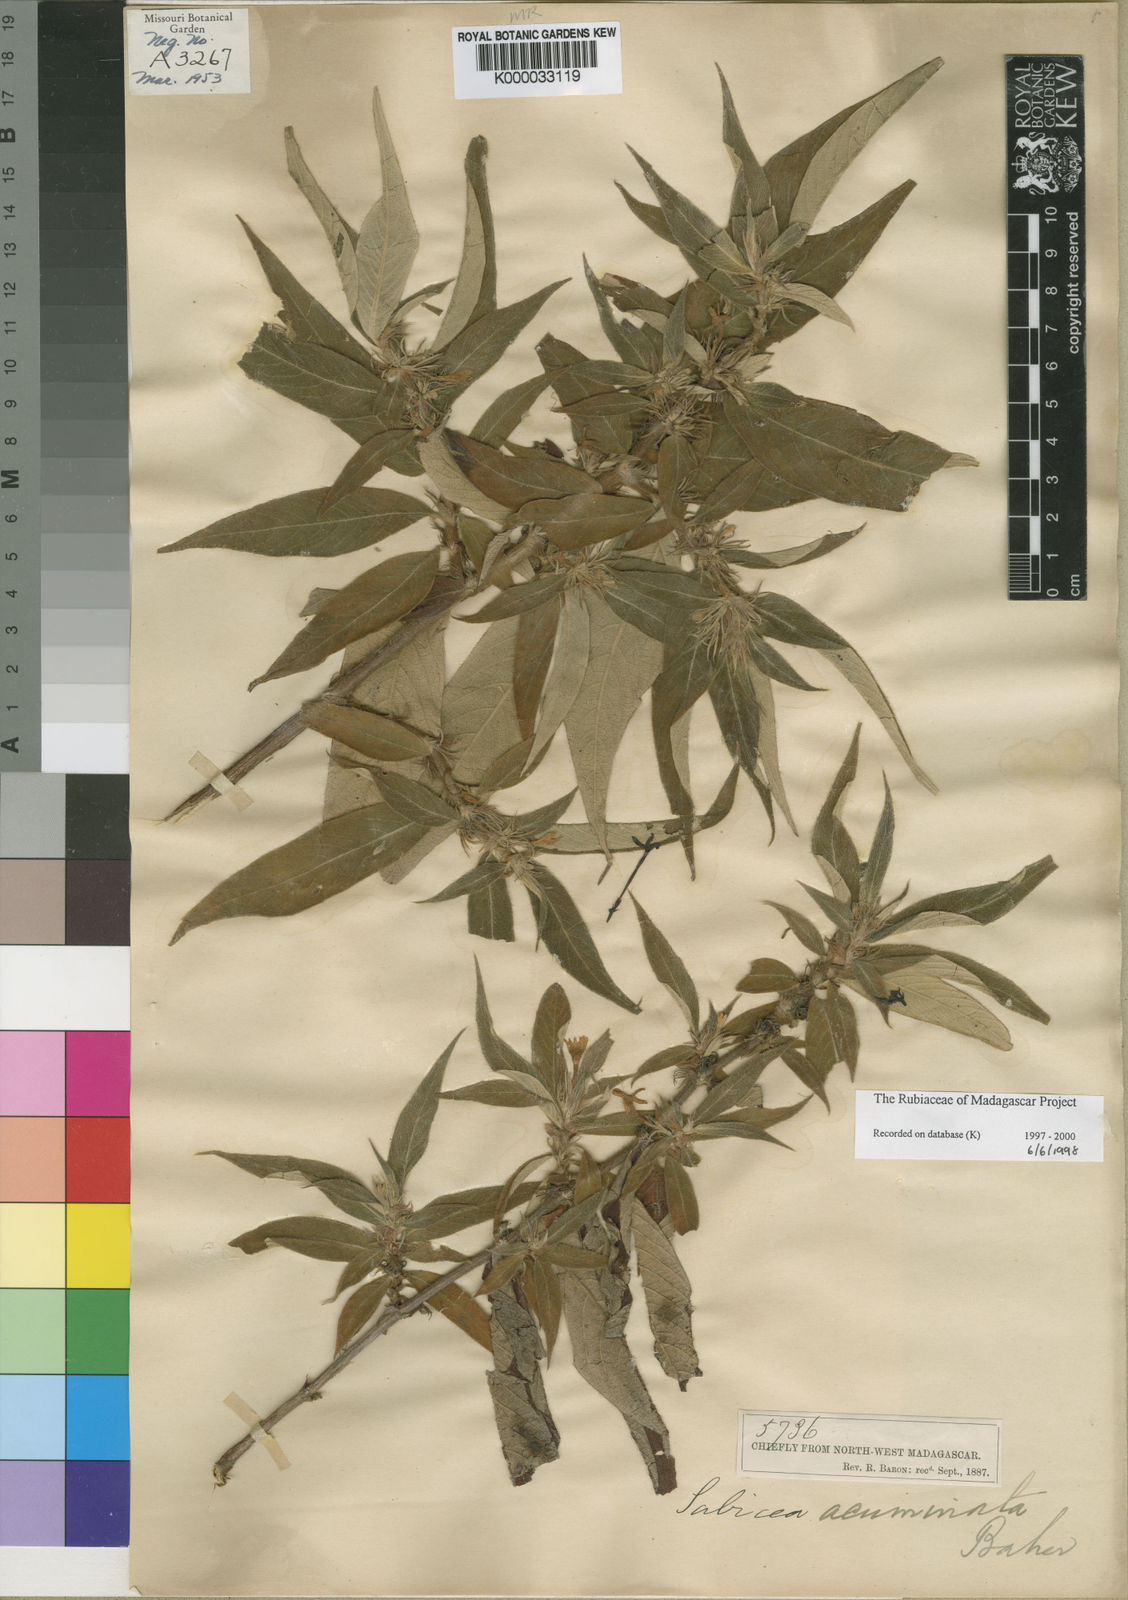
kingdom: Plantae
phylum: Tracheophyta
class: Magnoliopsida
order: Gentianales
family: Rubiaceae
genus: Sabicea
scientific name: Sabicea acuminata
